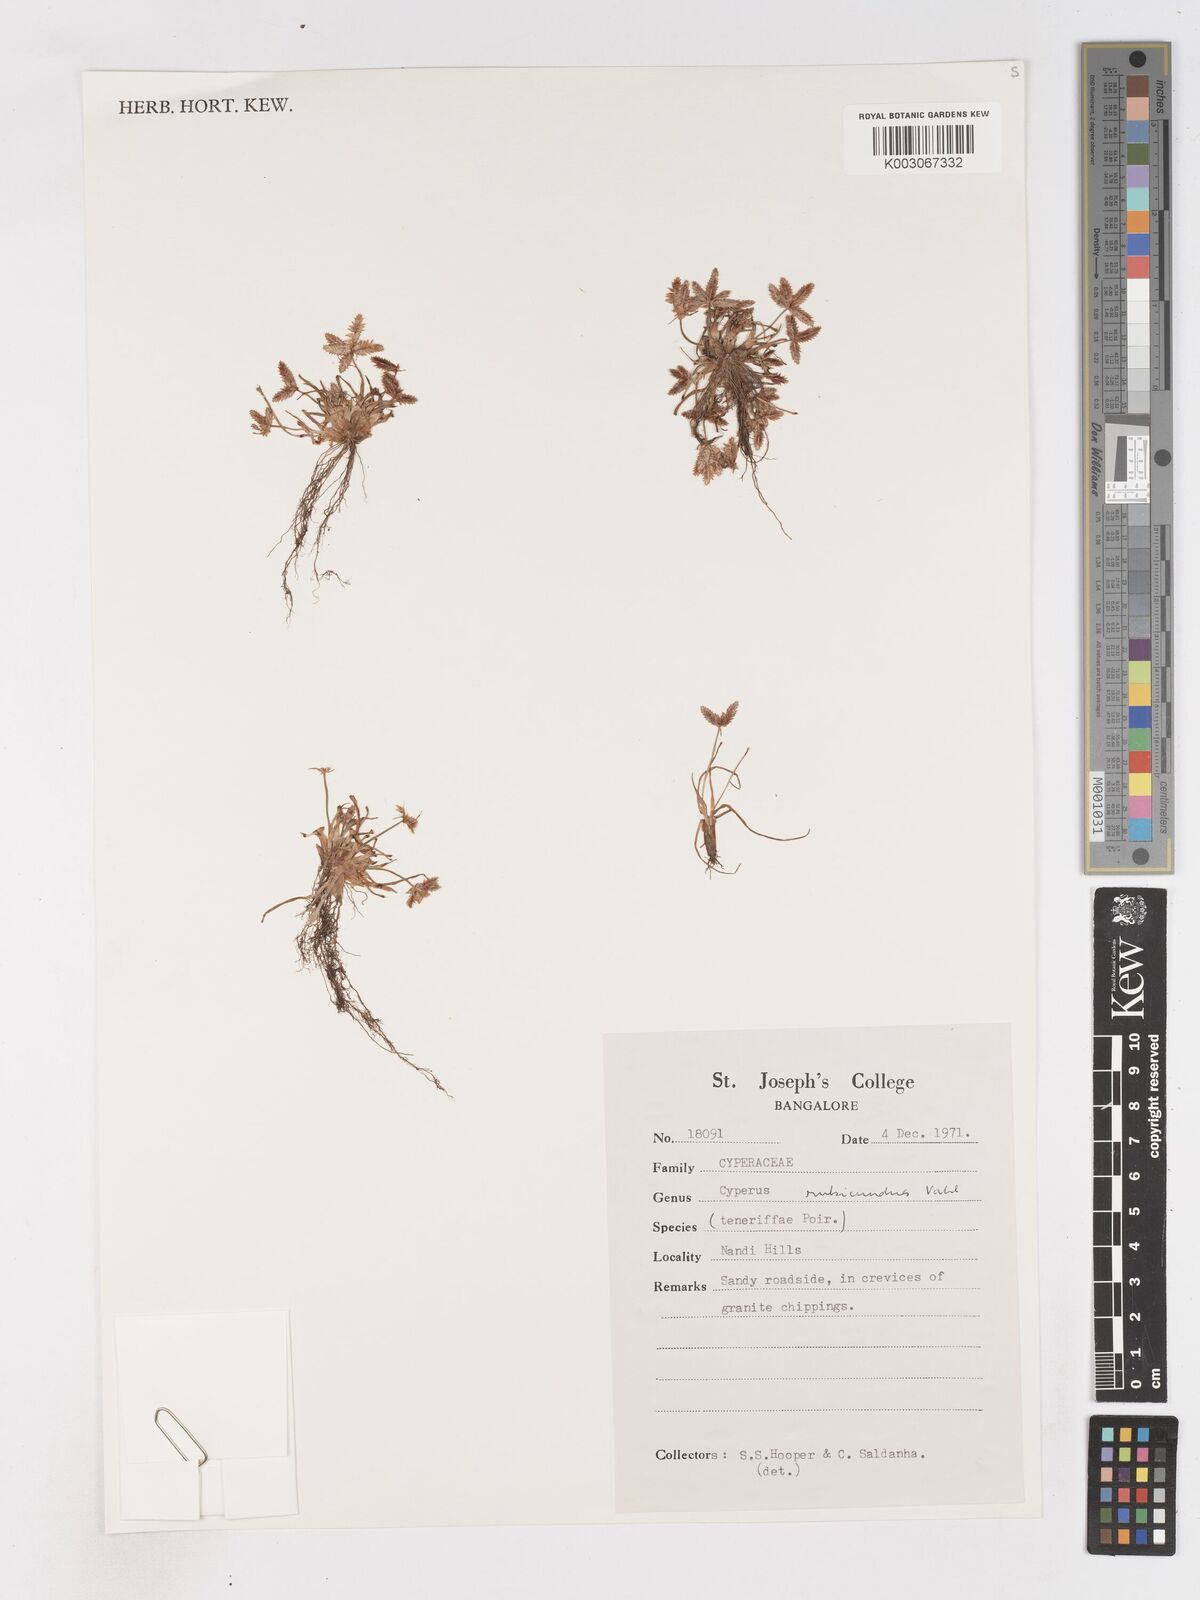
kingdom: Plantae
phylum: Tracheophyta
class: Liliopsida
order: Poales
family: Cyperaceae
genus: Cyperus
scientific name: Cyperus rubicundus
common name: Coco-grass
